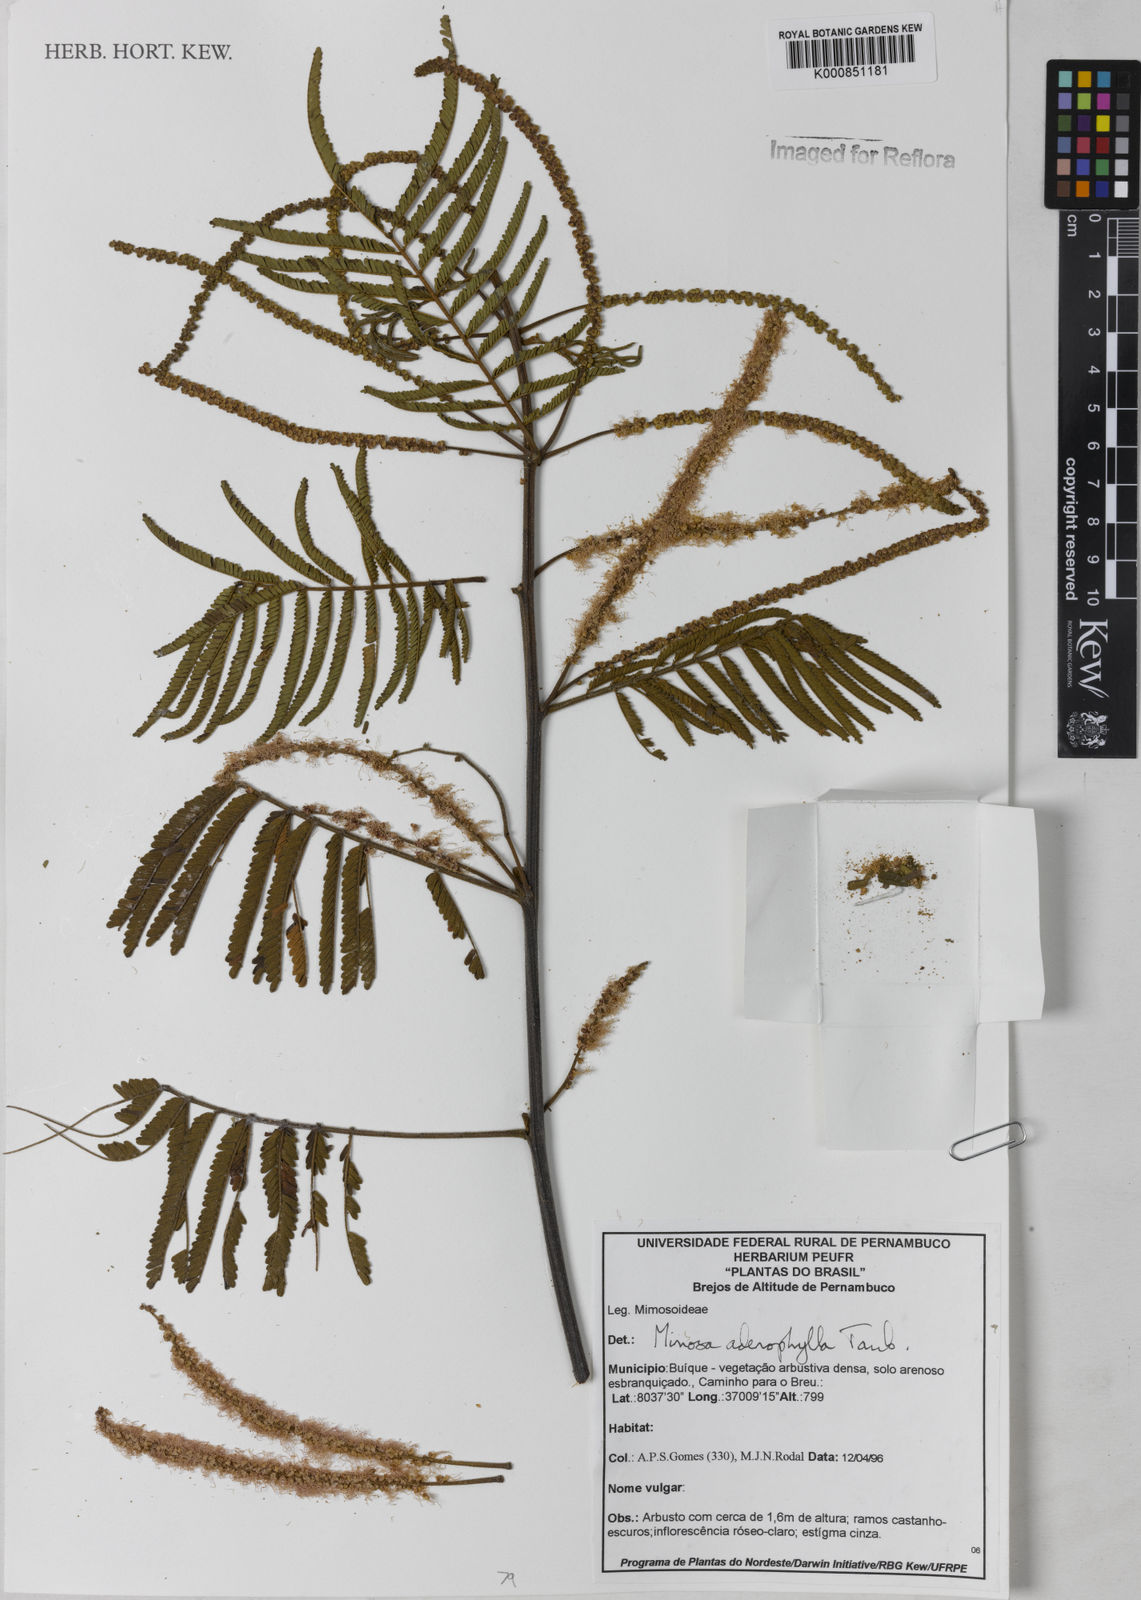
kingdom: Plantae
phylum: Tracheophyta
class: Magnoliopsida
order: Fabales
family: Fabaceae
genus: Mimosa
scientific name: Mimosa pteridifolia
